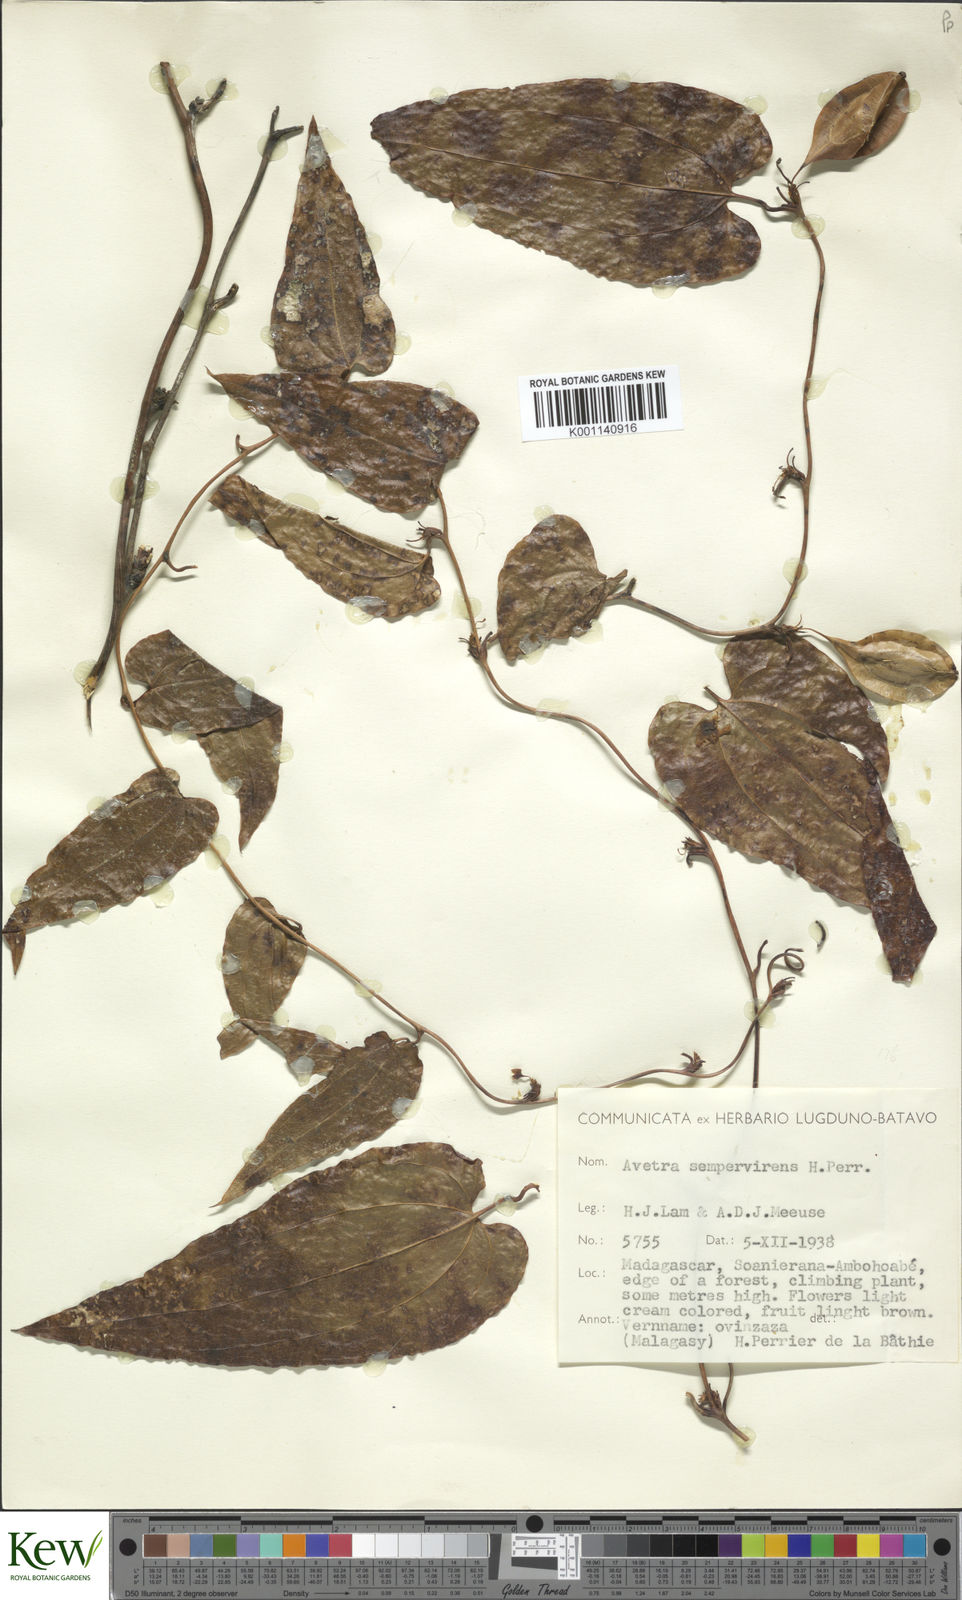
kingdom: Plantae
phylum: Tracheophyta
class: Liliopsida
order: Dioscoreales
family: Dioscoreaceae
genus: Trichopus
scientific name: Trichopus
